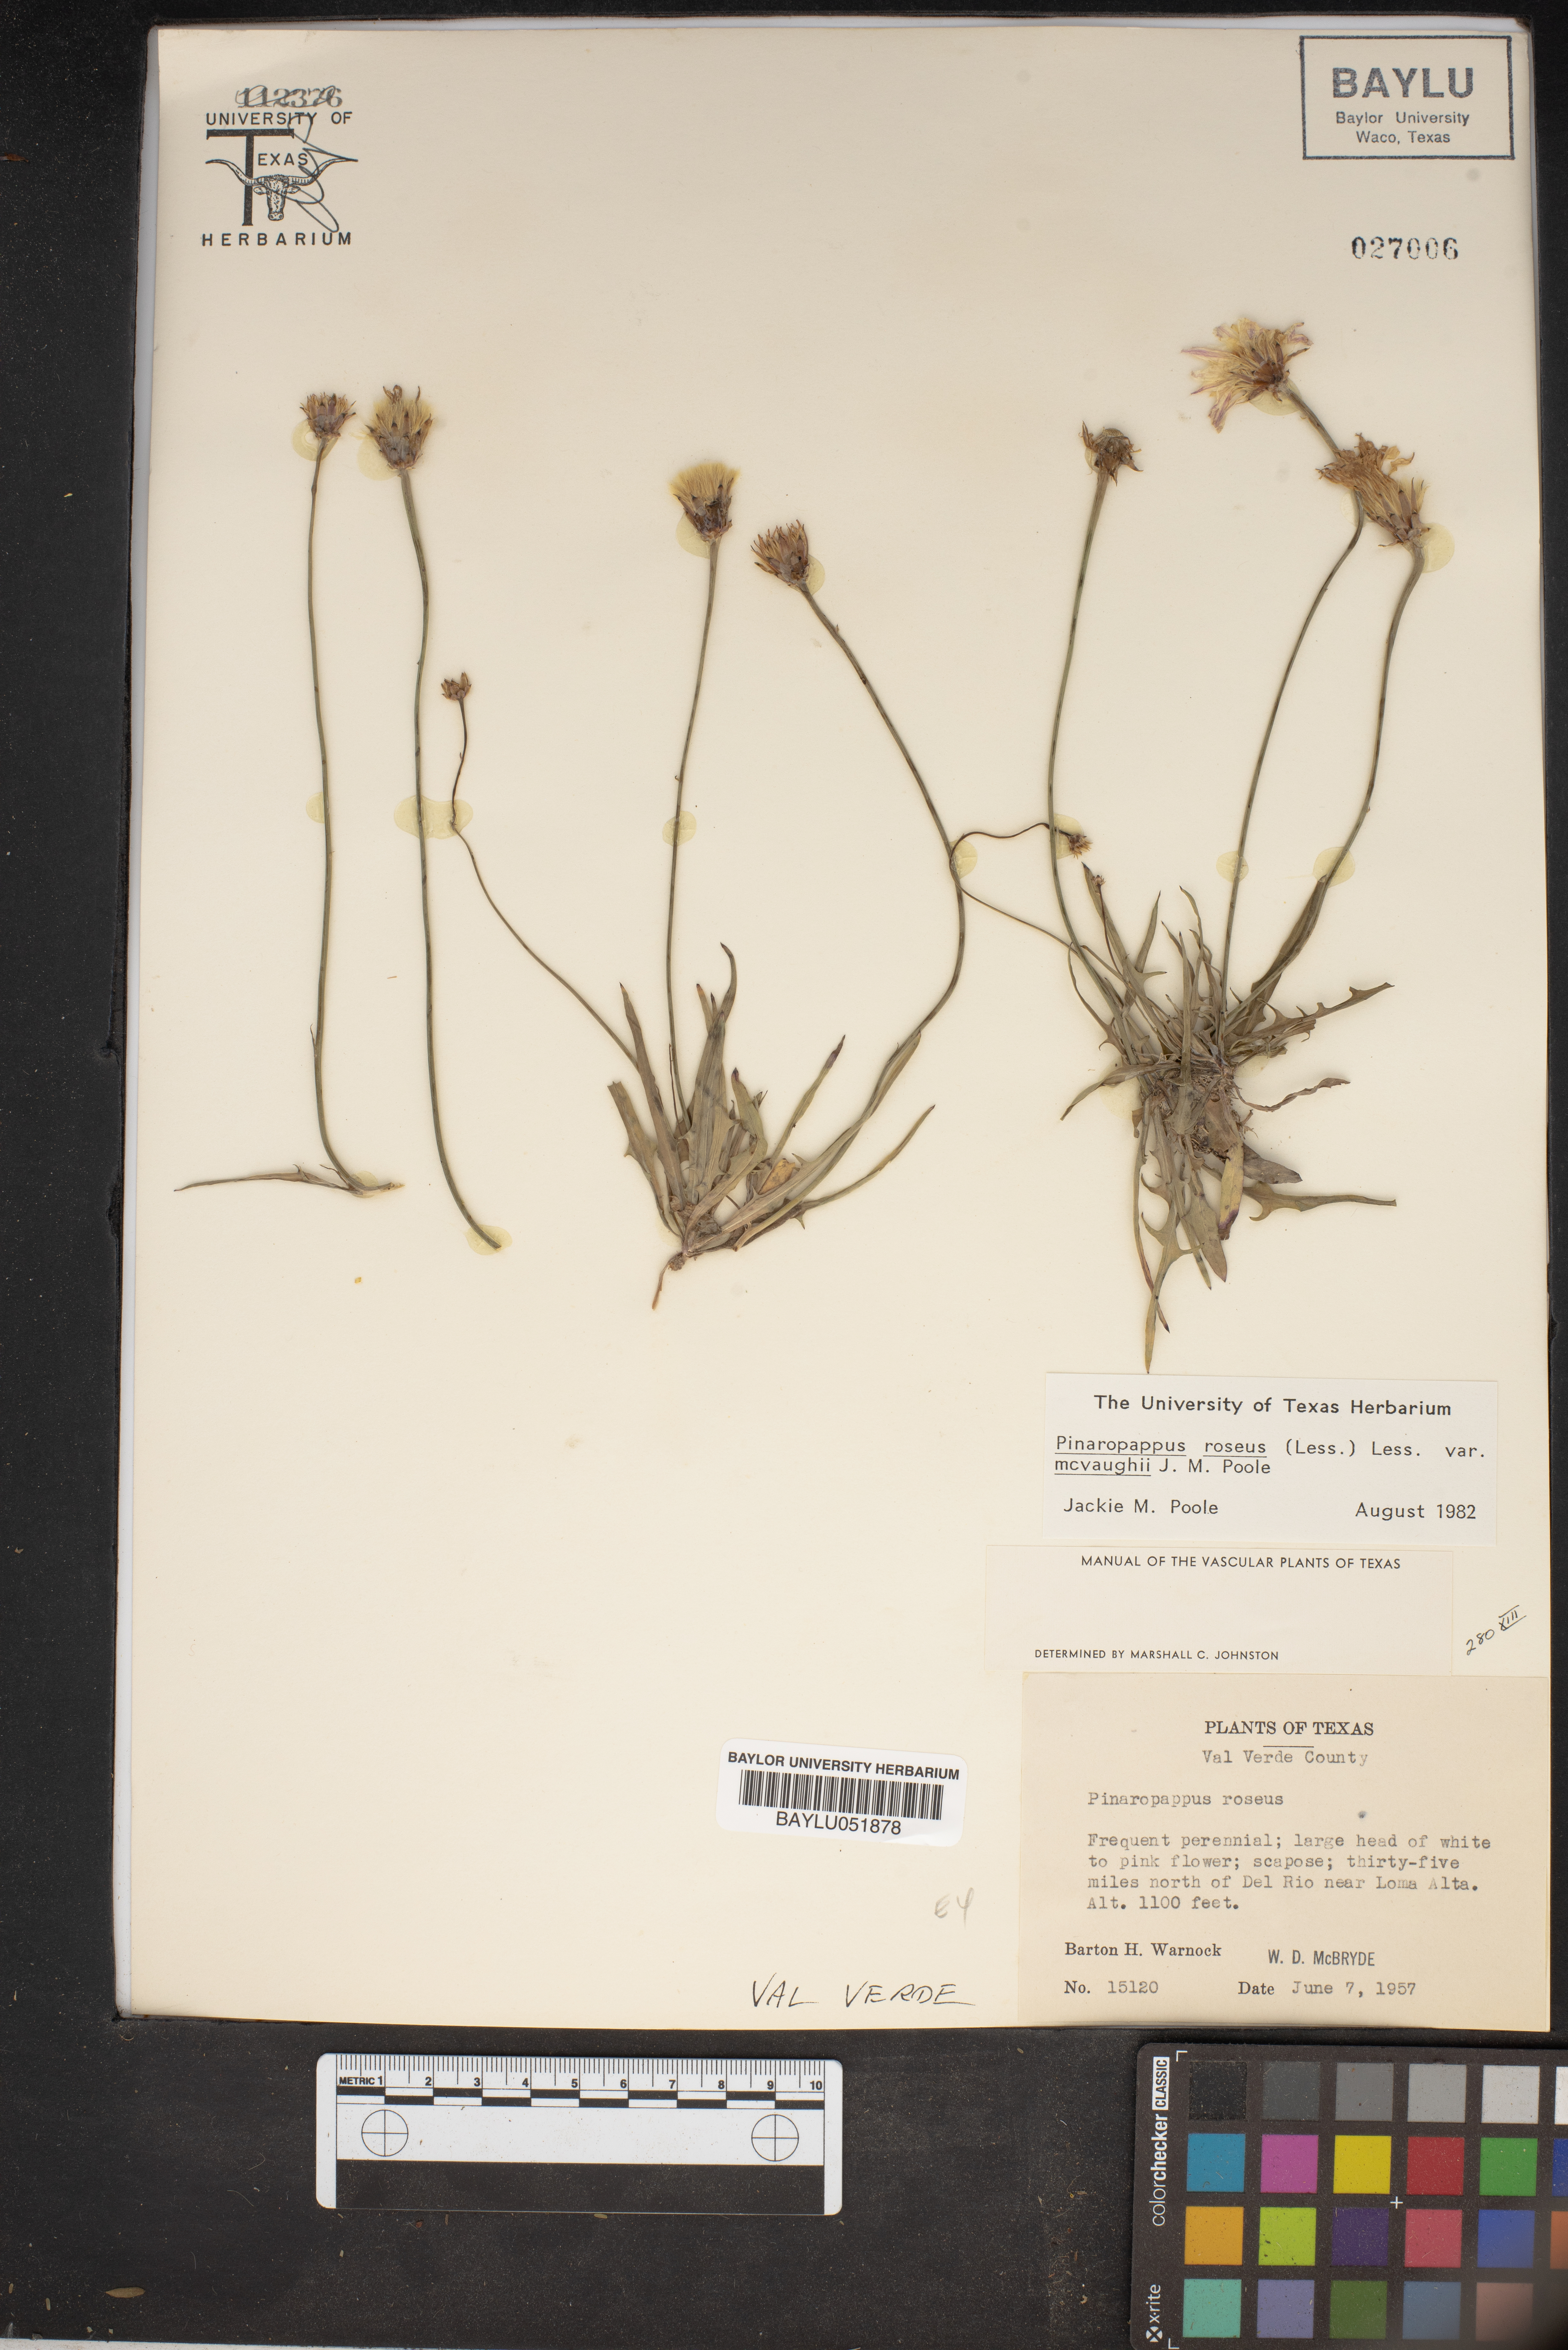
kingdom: Plantae
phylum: Tracheophyta
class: Magnoliopsida
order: Asterales
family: Asteraceae
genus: Pinaropappus
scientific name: Pinaropappus roseus
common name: Rock-lettuce
